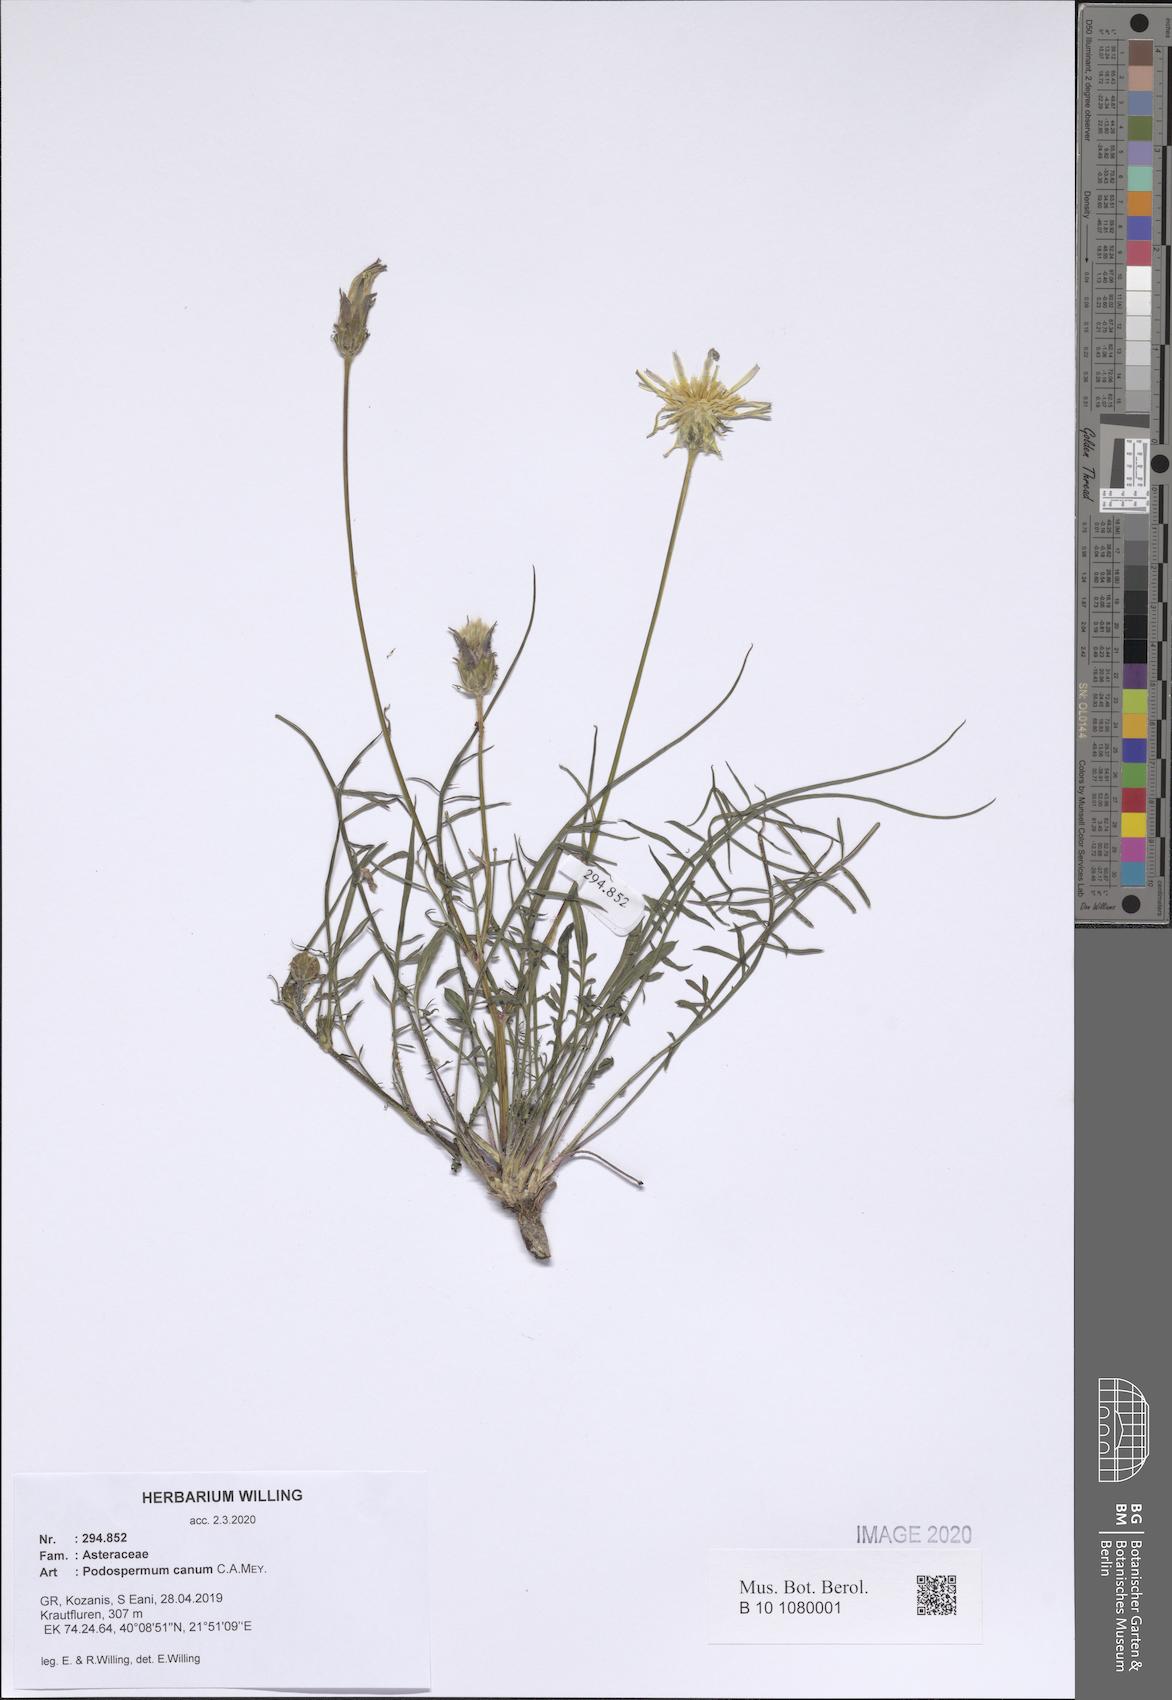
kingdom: Plantae
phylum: Tracheophyta
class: Magnoliopsida
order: Asterales
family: Asteraceae
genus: Scorzonera
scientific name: Scorzonera cana
